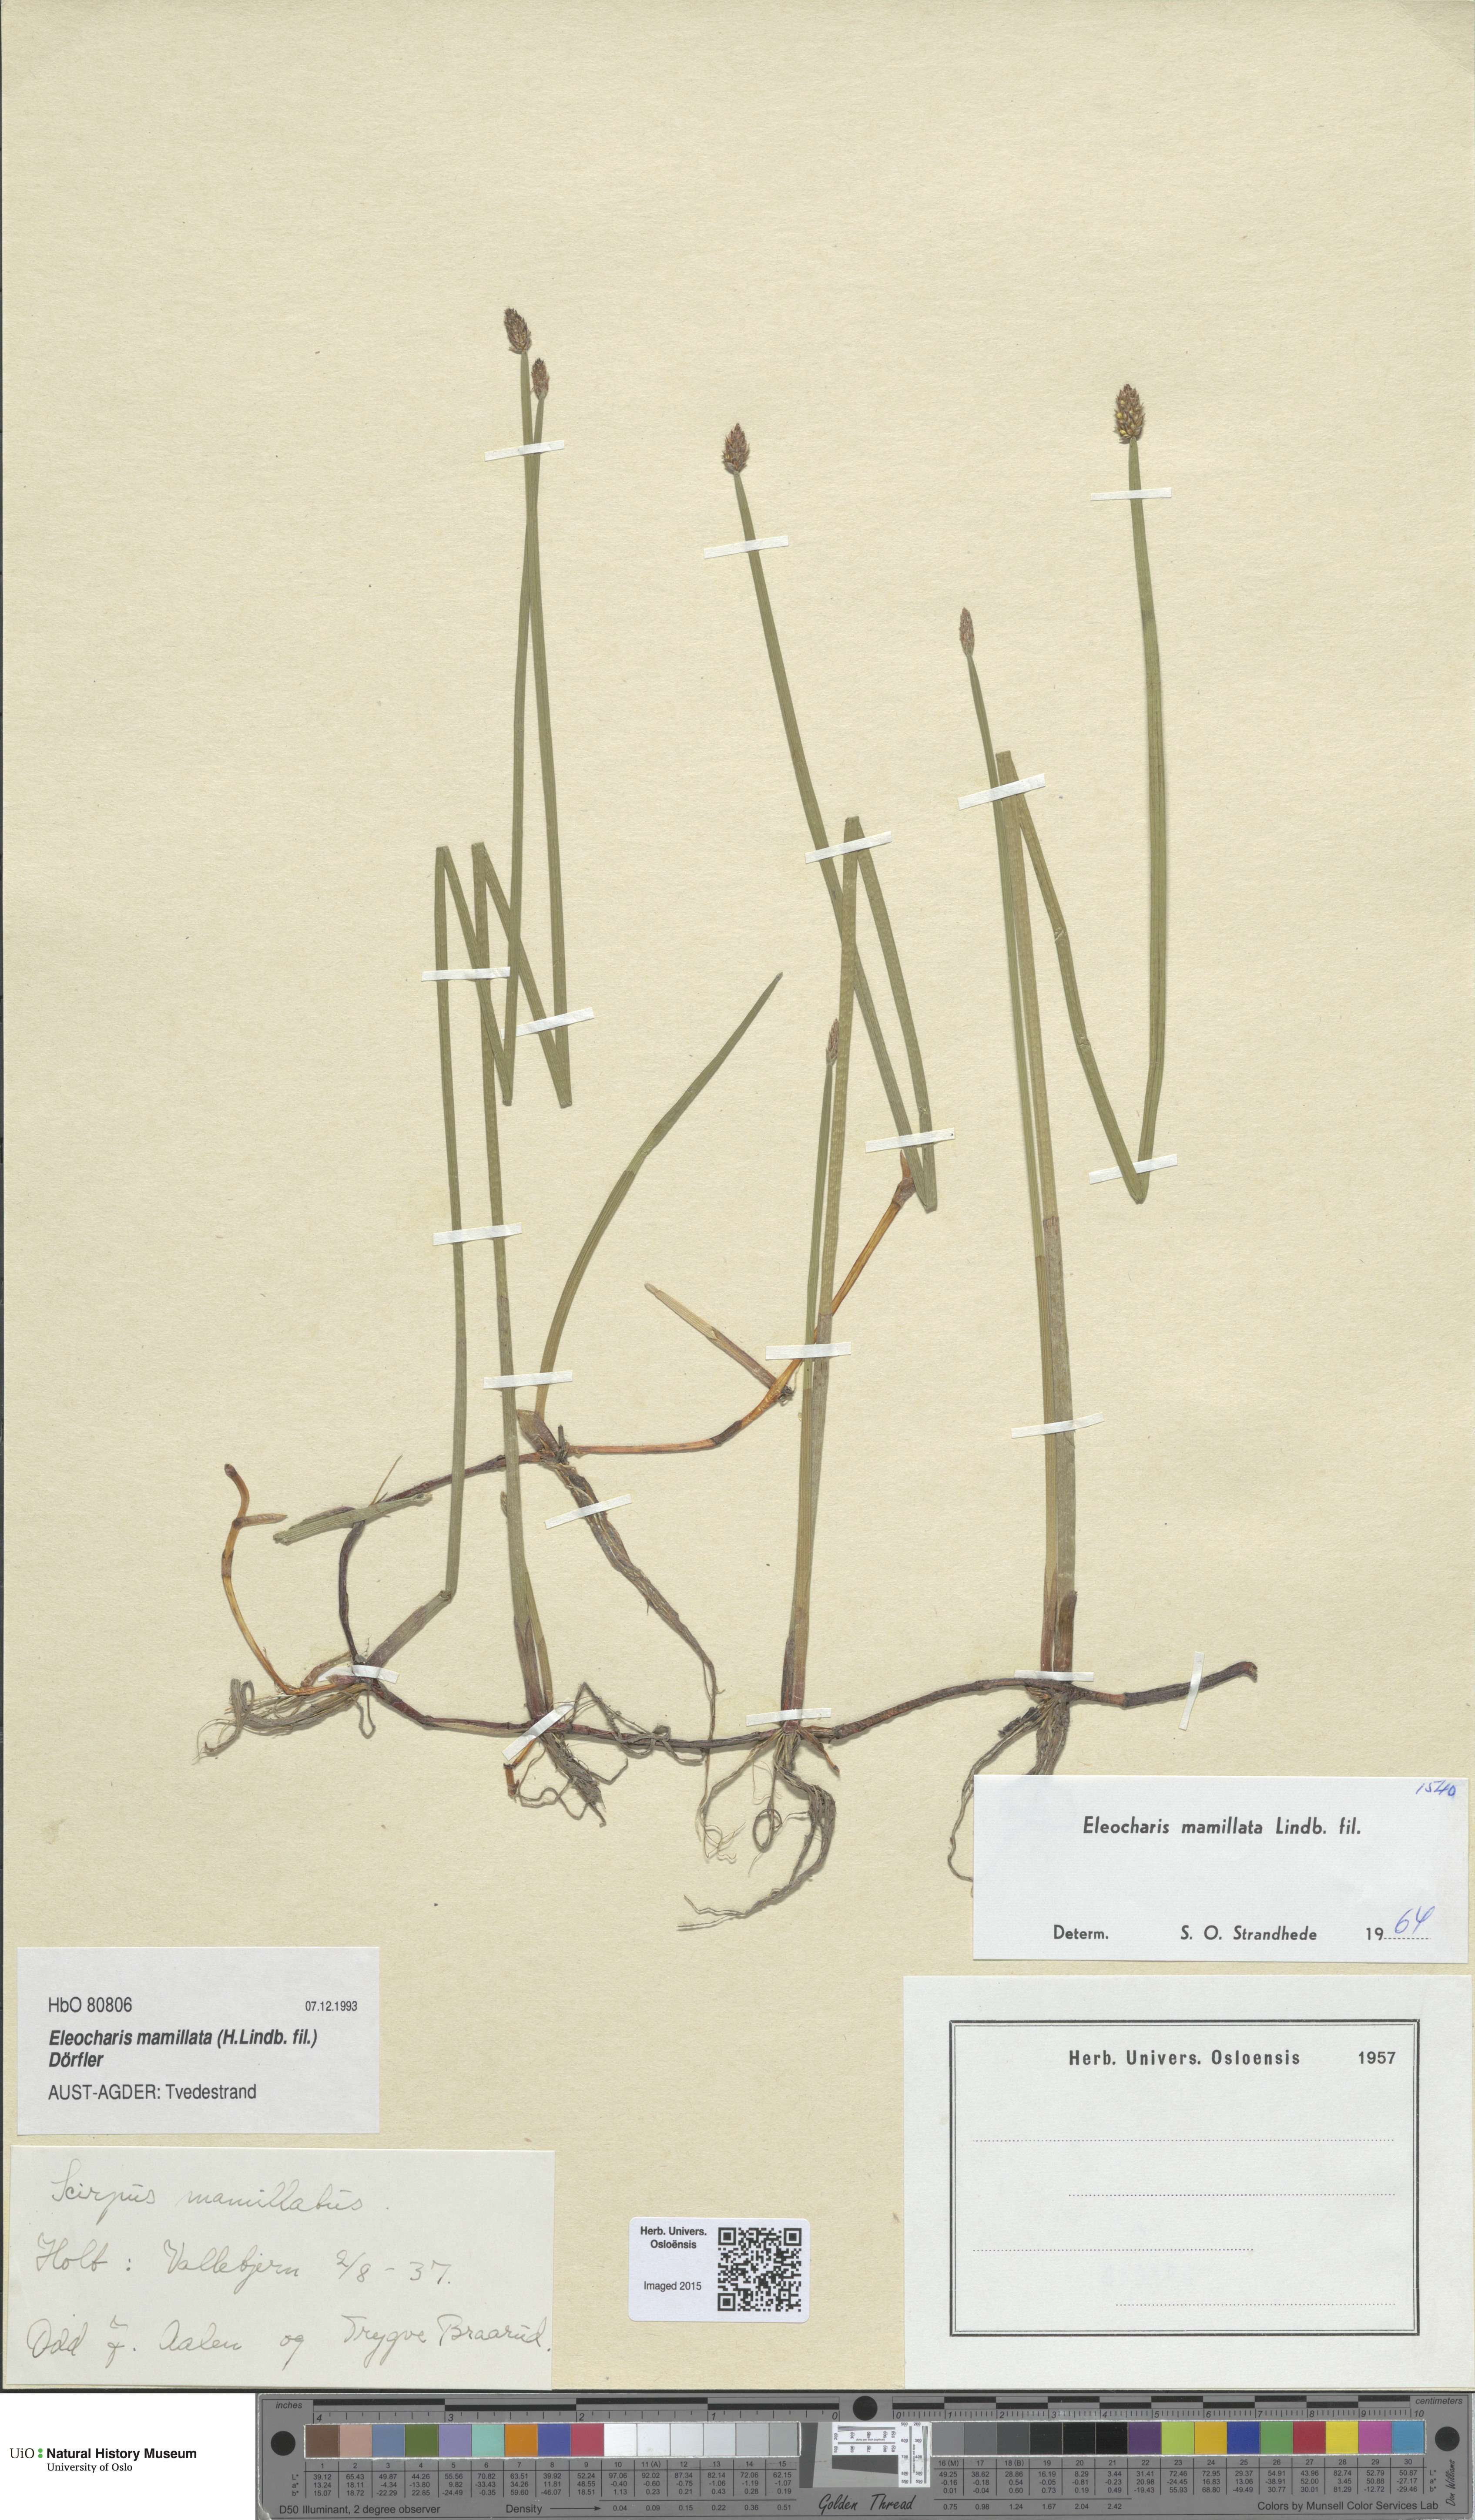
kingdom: Plantae
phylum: Tracheophyta
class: Liliopsida
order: Poales
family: Cyperaceae
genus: Eleocharis
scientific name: Eleocharis mamillata
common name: Northern spike-rush
